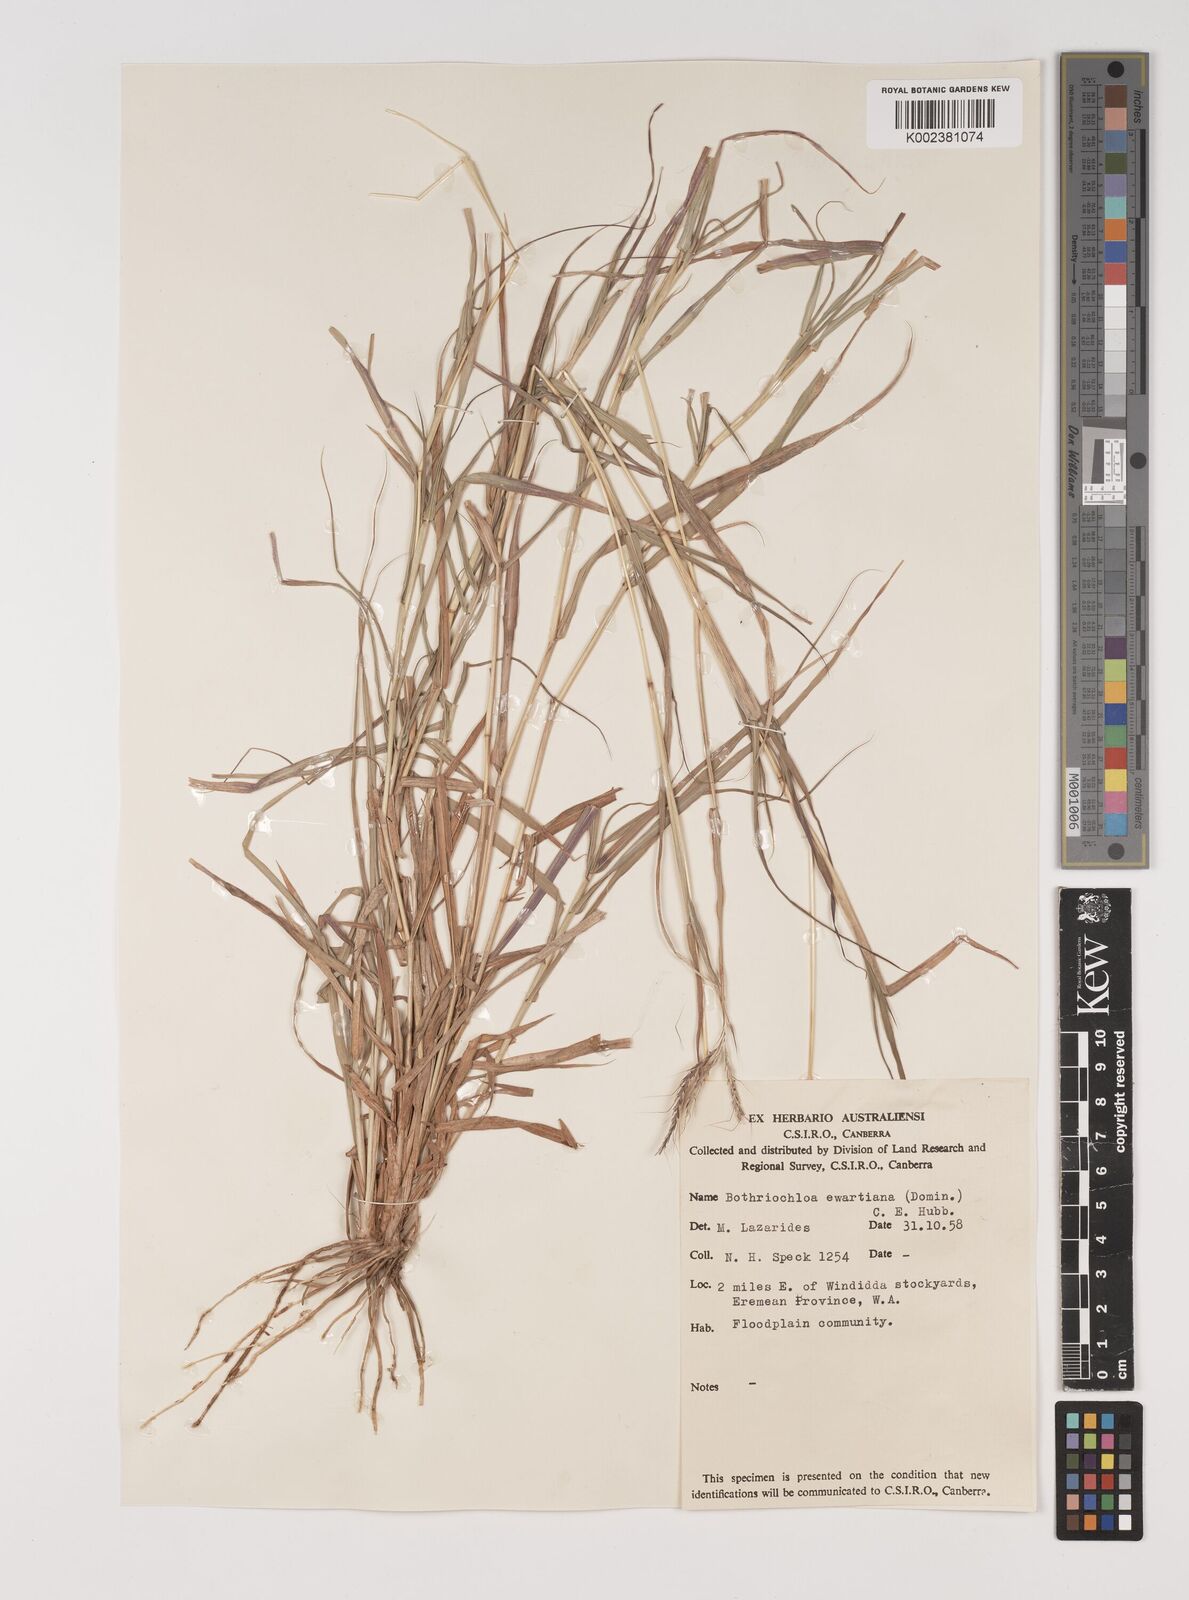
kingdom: Plantae
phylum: Tracheophyta
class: Liliopsida
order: Poales
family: Poaceae
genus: Bothriochloa
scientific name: Bothriochloa ewartiana
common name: Desert-bluegrass
